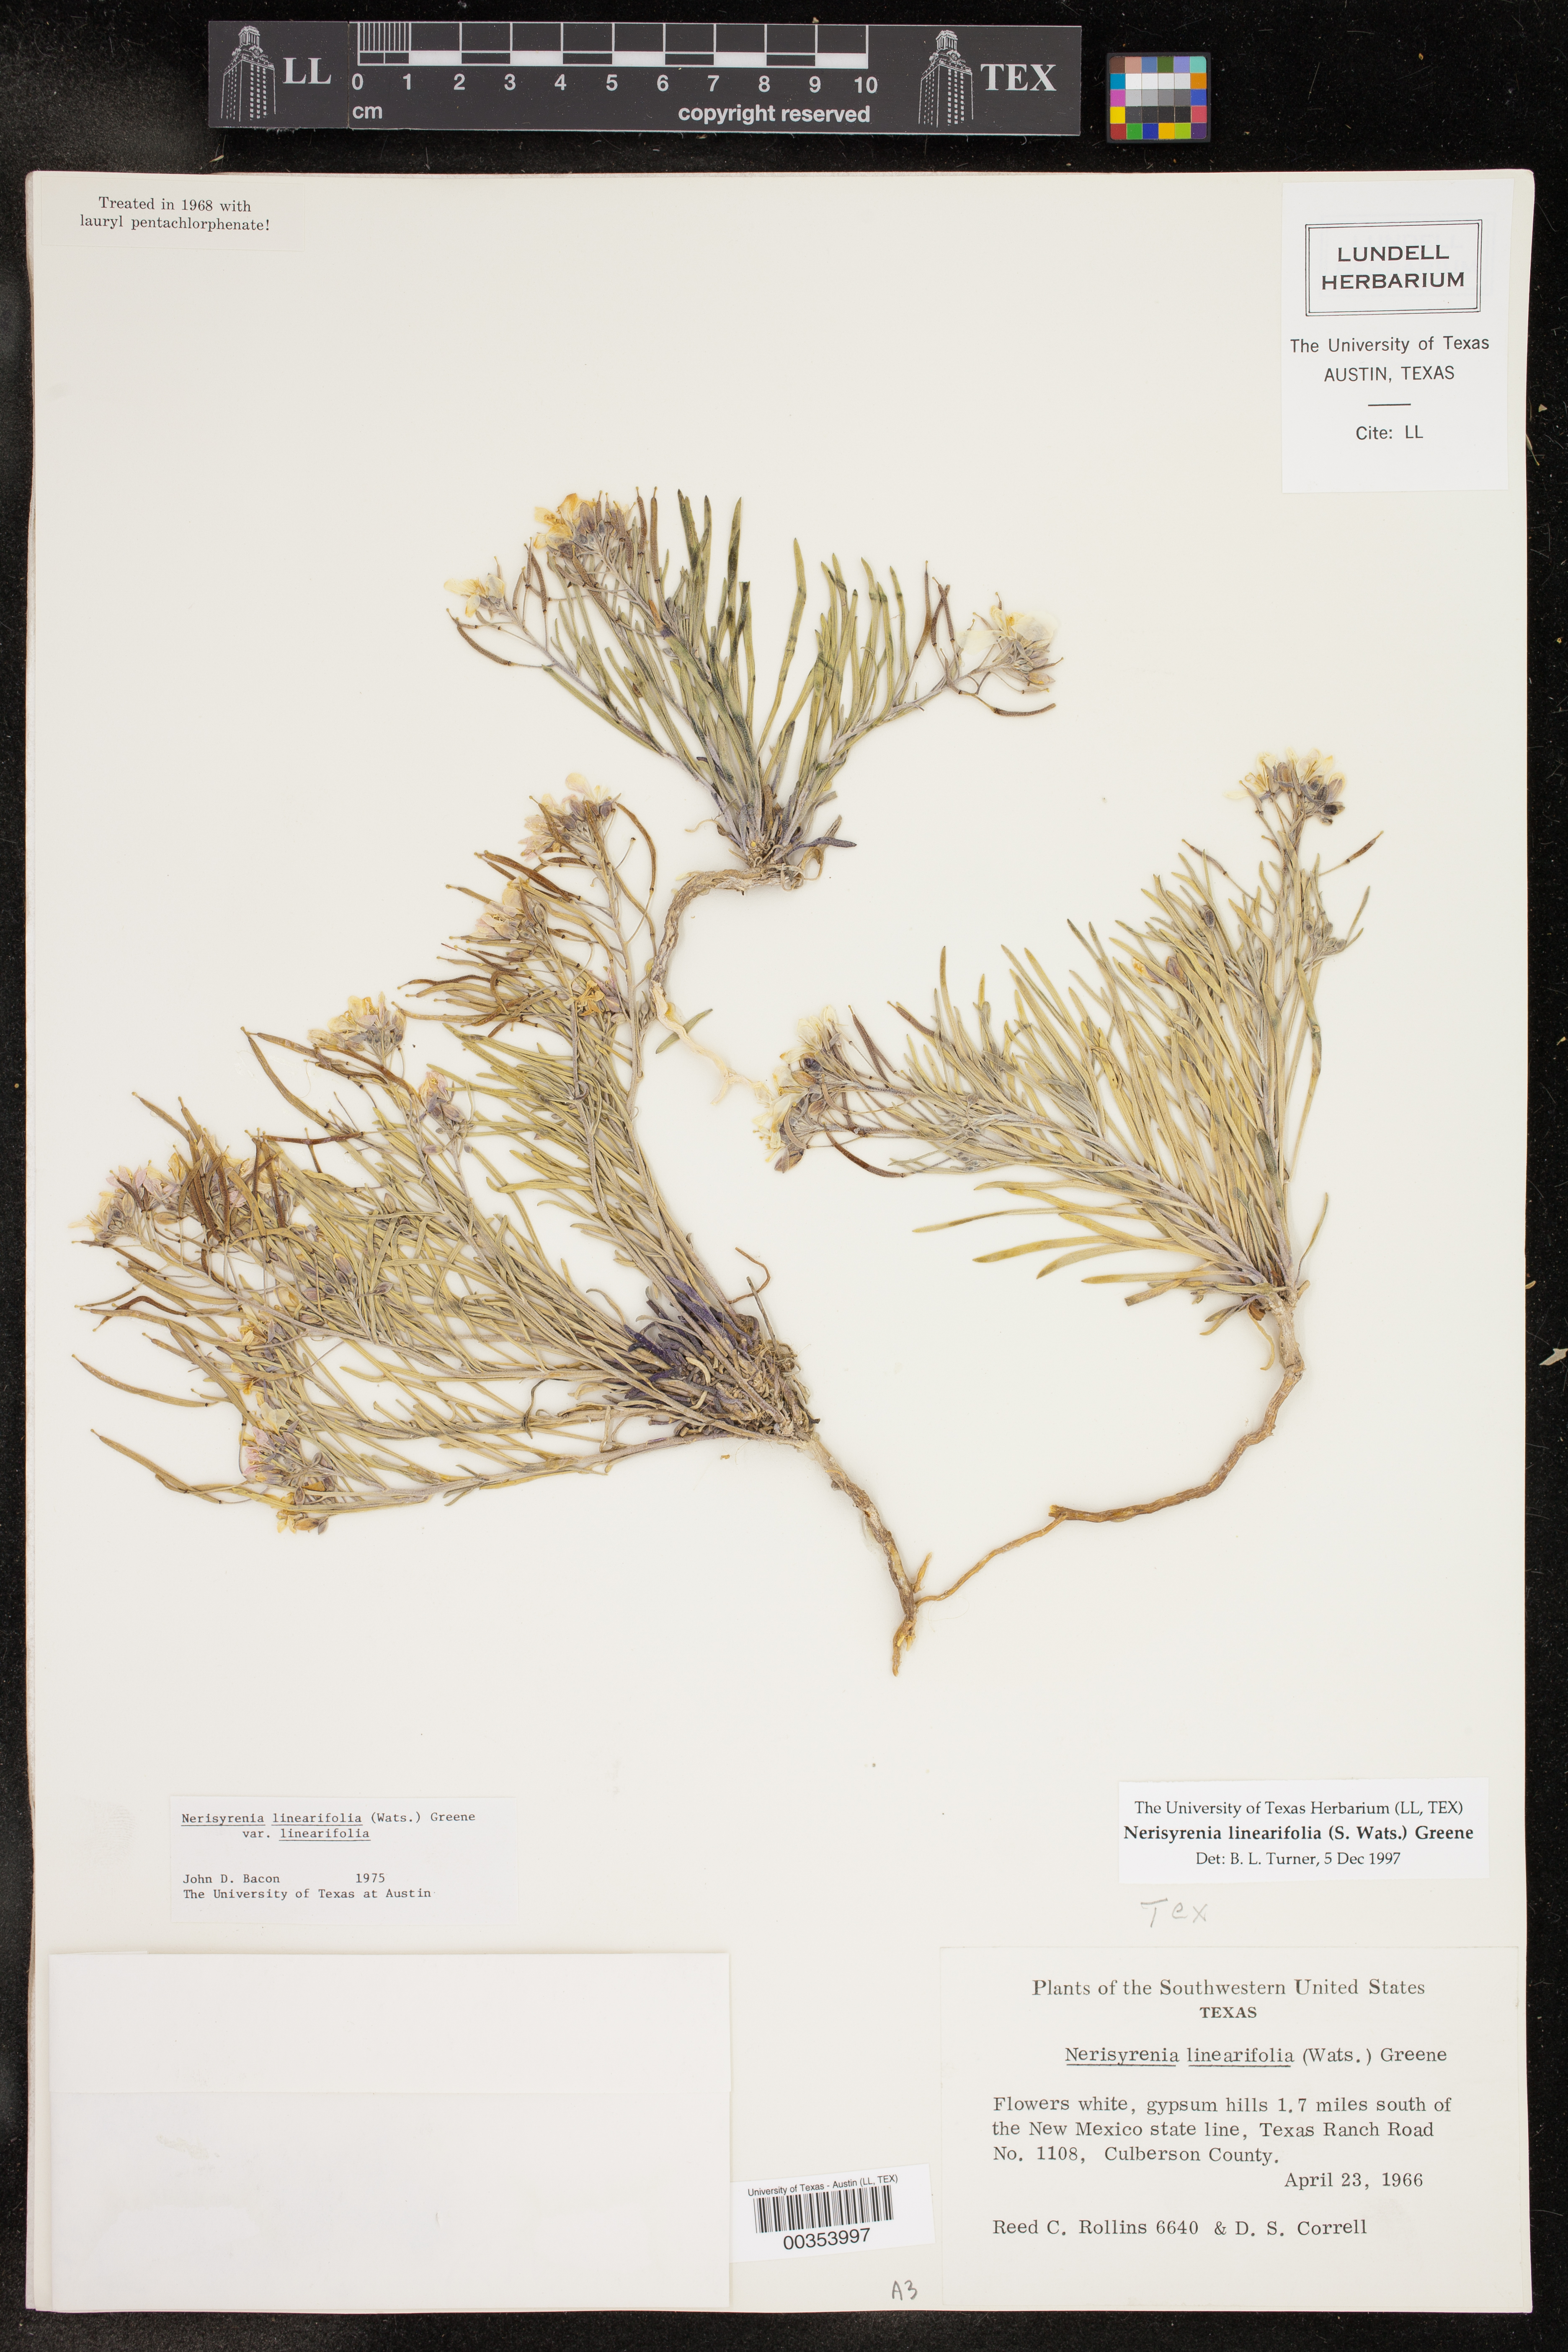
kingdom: Plantae
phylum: Tracheophyta
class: Magnoliopsida
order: Brassicales
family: Brassicaceae
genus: Nerisyrenia
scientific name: Nerisyrenia linearifolia
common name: White sands fan mustard
